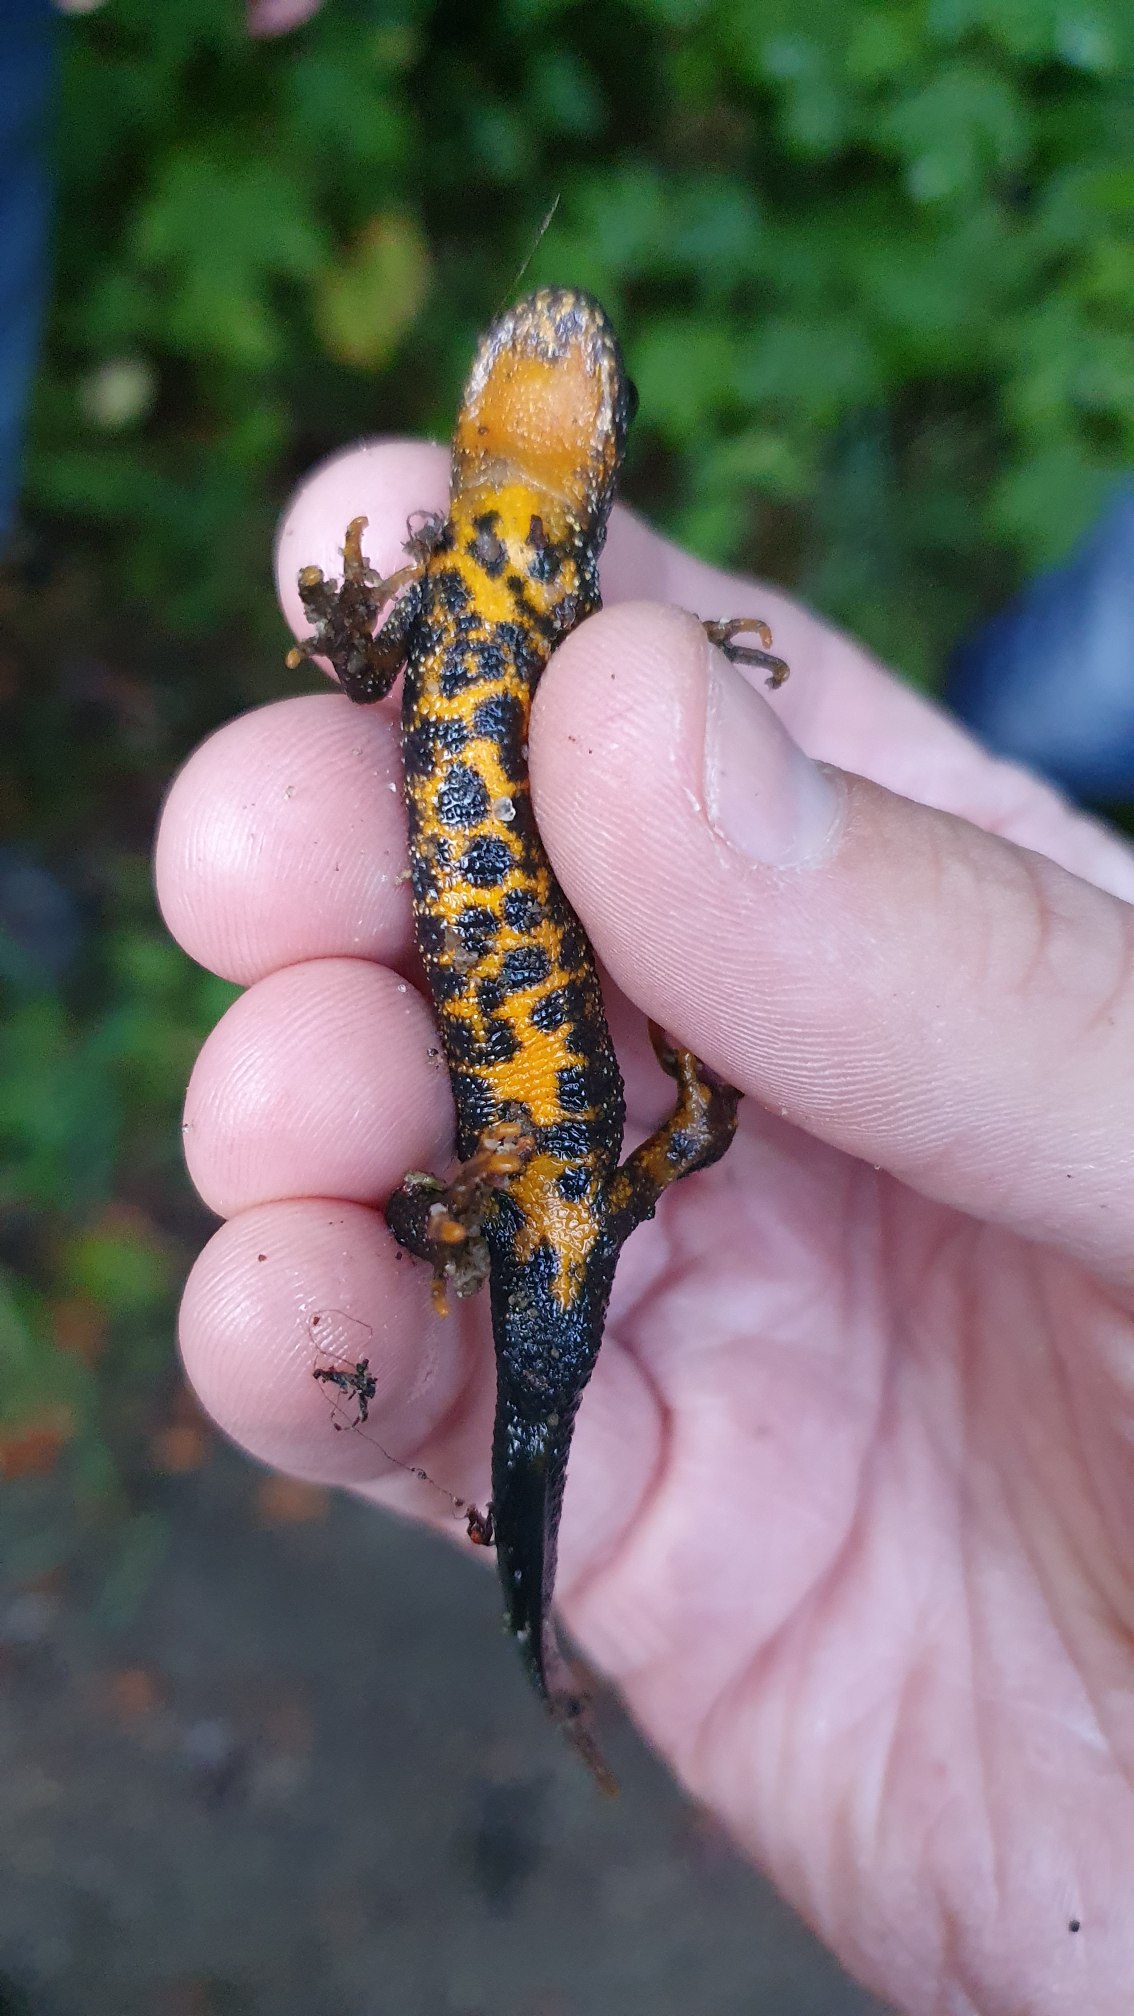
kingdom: Animalia
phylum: Chordata
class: Amphibia
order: Caudata
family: Salamandridae
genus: Triturus
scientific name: Triturus cristatus
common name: Stor vandsalamander
